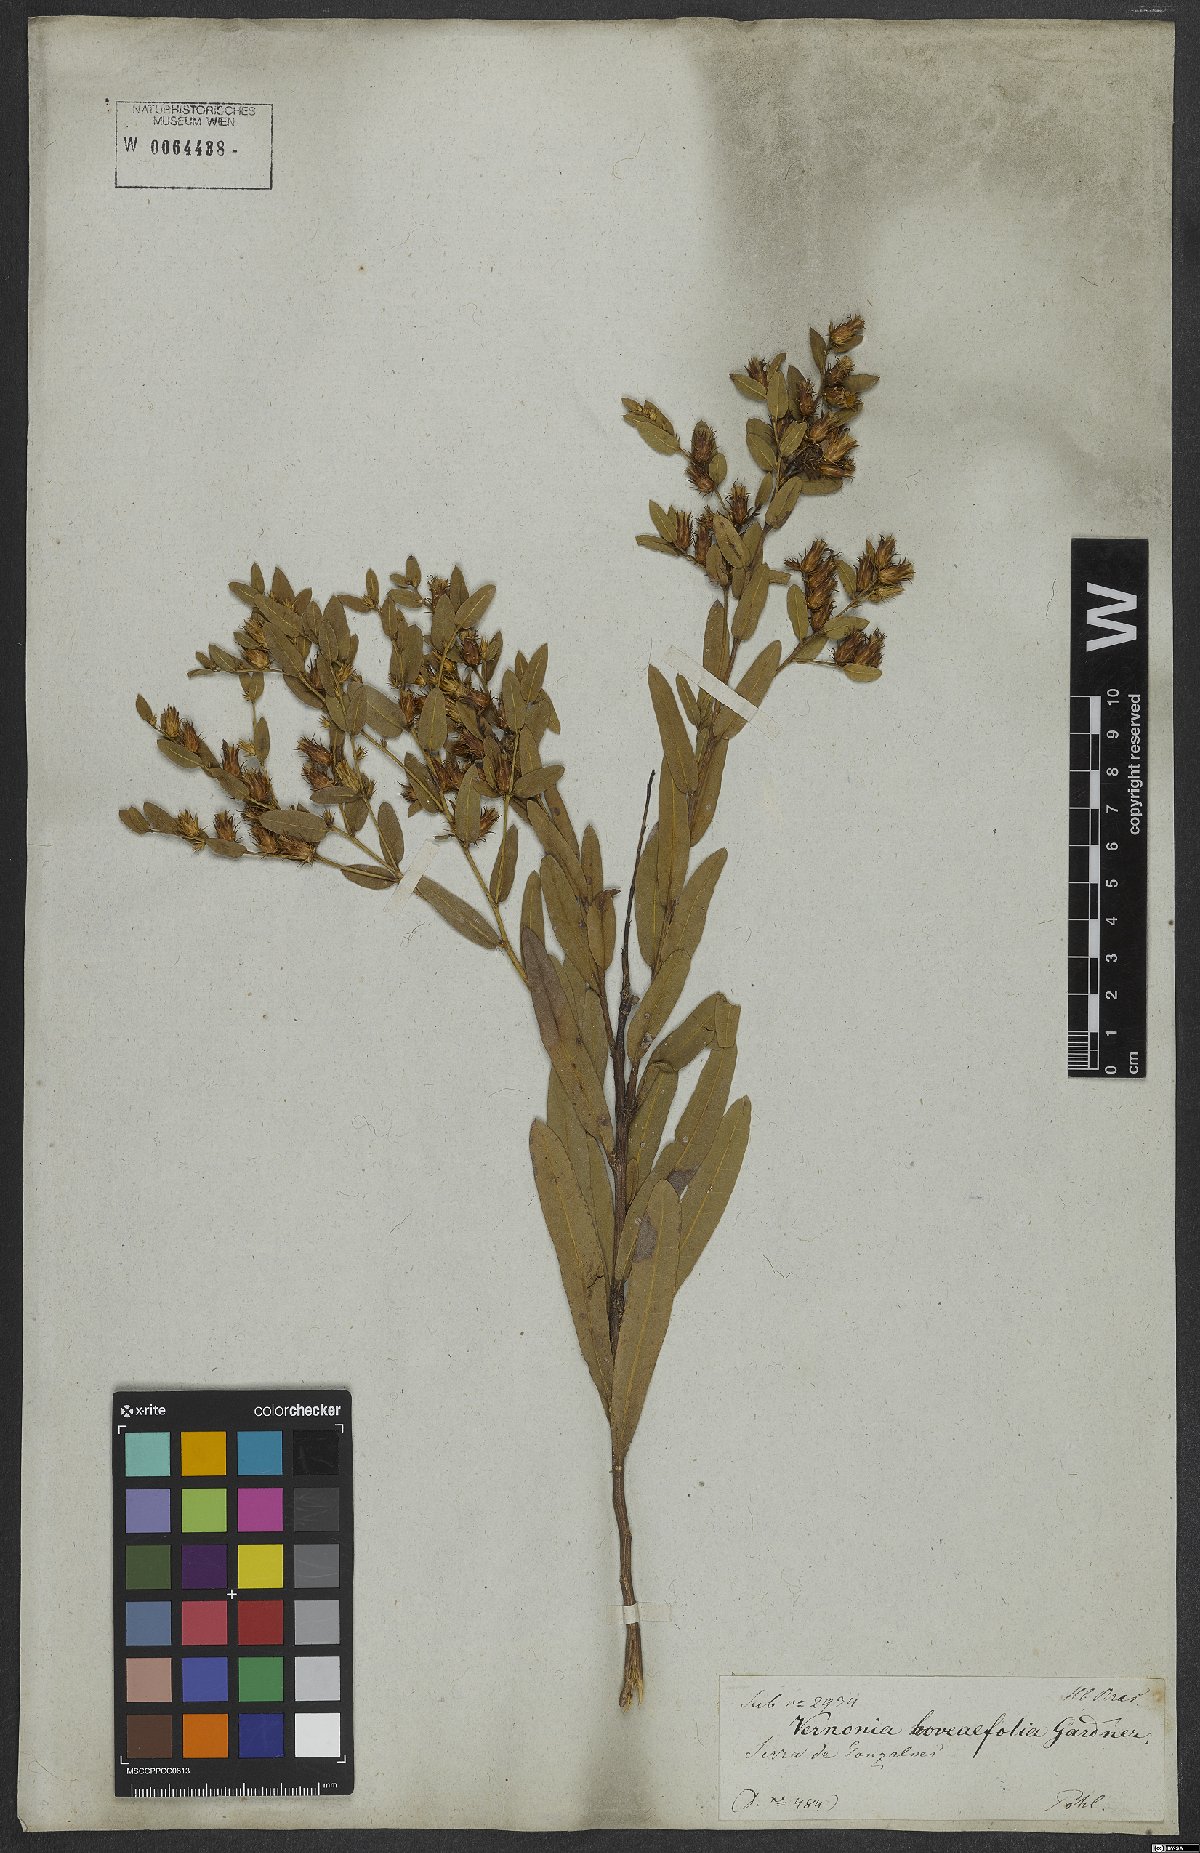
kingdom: Plantae
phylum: Tracheophyta
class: Magnoliopsida
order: Asterales
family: Asteraceae
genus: Lessingianthus
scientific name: Lessingianthus hoveaefolius
